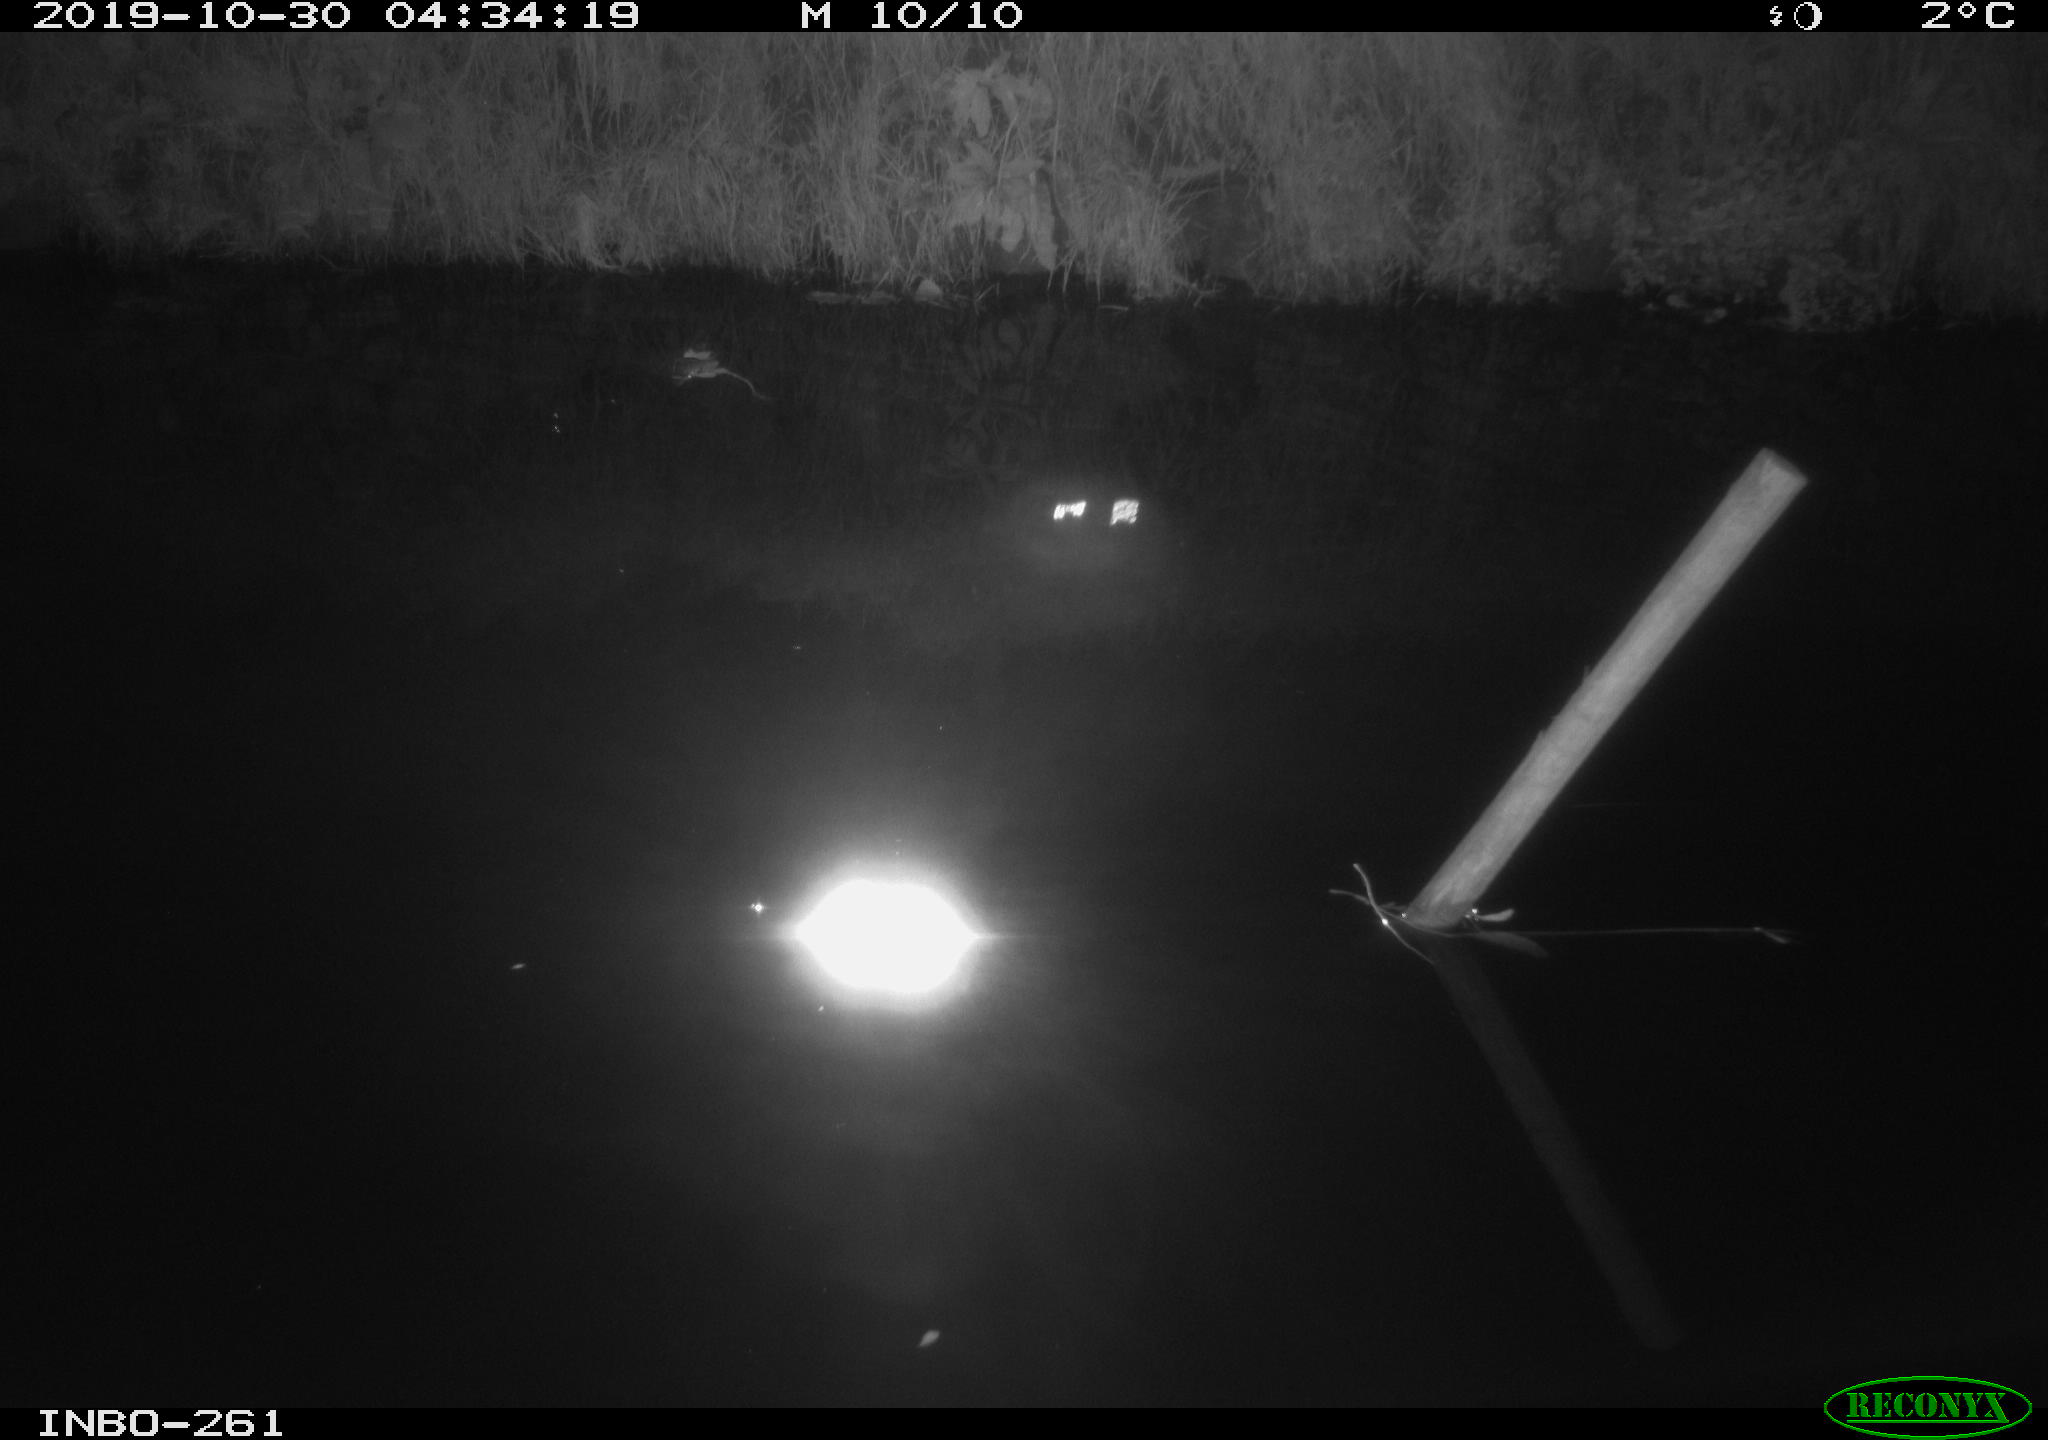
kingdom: Animalia
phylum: Chordata
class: Aves
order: Anseriformes
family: Anatidae
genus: Anas
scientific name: Anas platyrhynchos
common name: Mallard
